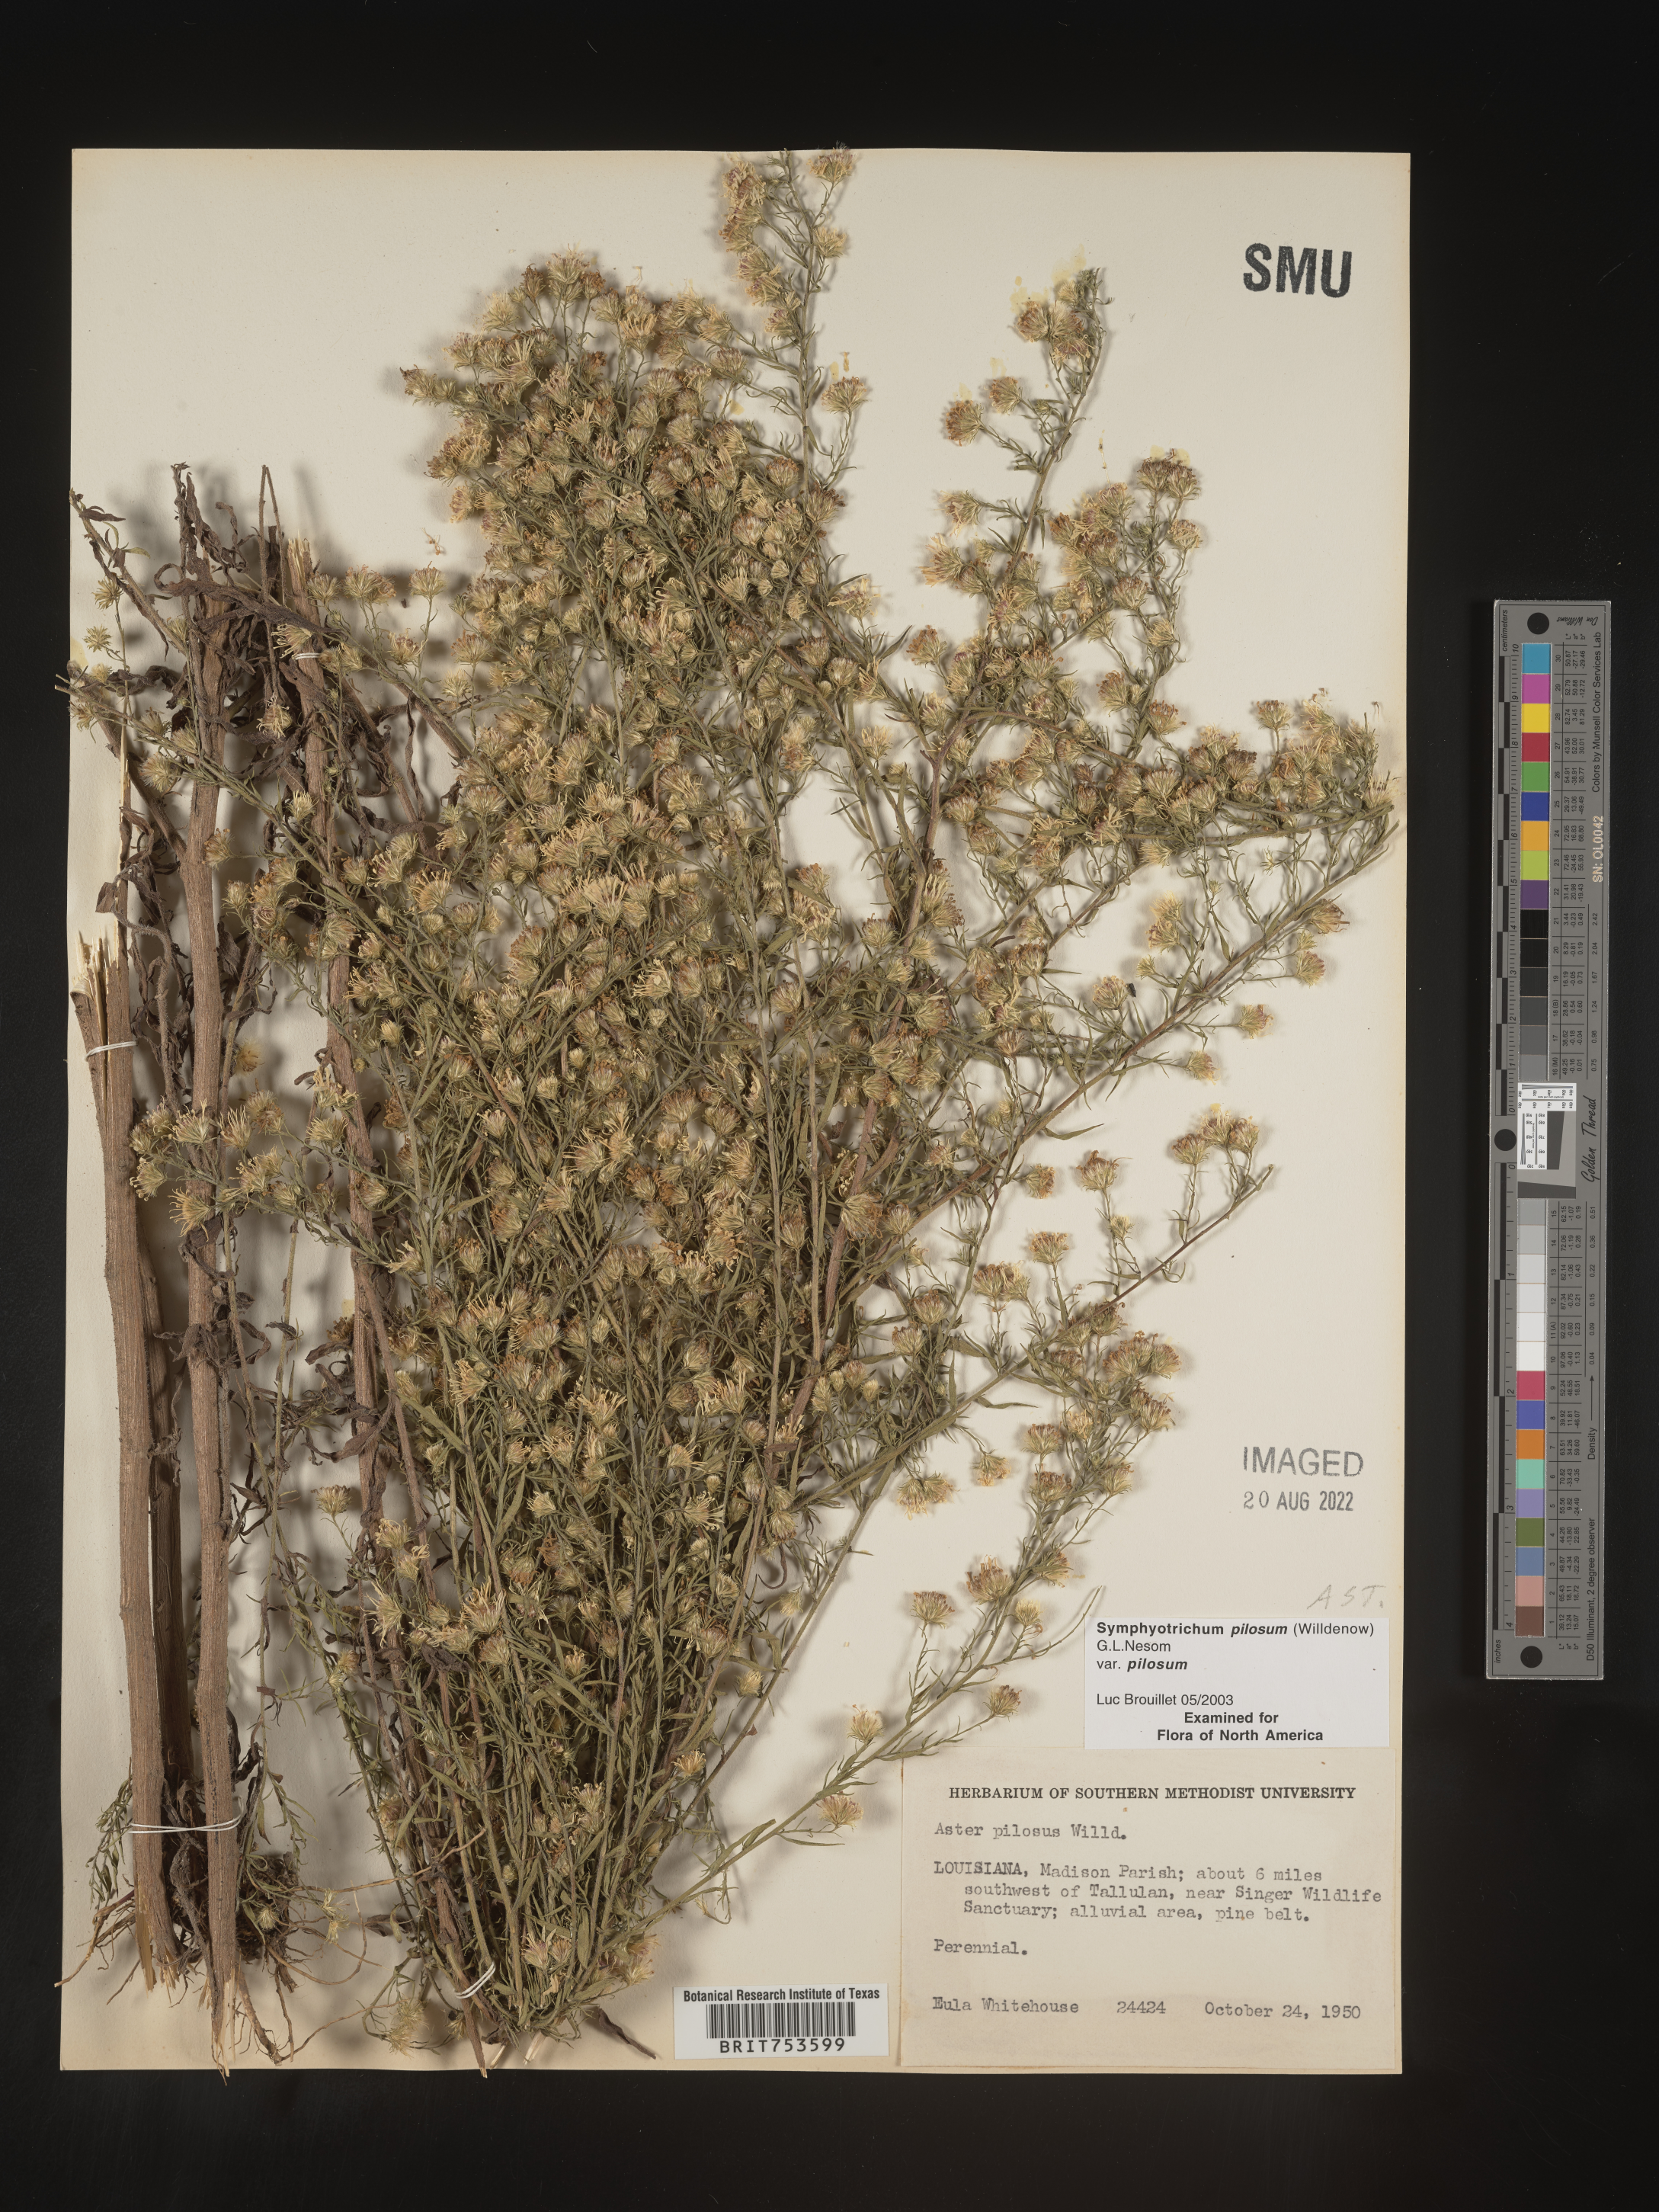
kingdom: Plantae
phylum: Tracheophyta
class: Magnoliopsida
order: Asterales
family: Asteraceae
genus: Symphyotrichum
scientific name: Symphyotrichum pilosum
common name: Awl aster
